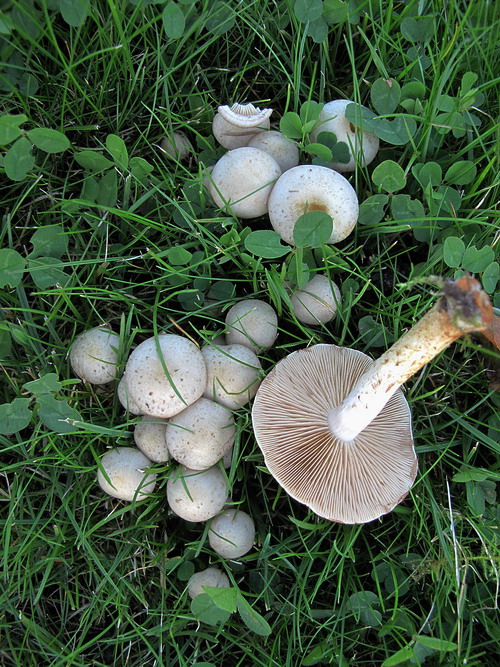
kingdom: Fungi
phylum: Basidiomycota
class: Agaricomycetes
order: Agaricales
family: Strophariaceae
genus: Pholiota
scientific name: Pholiota gummosa
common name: grøngul skælhat
